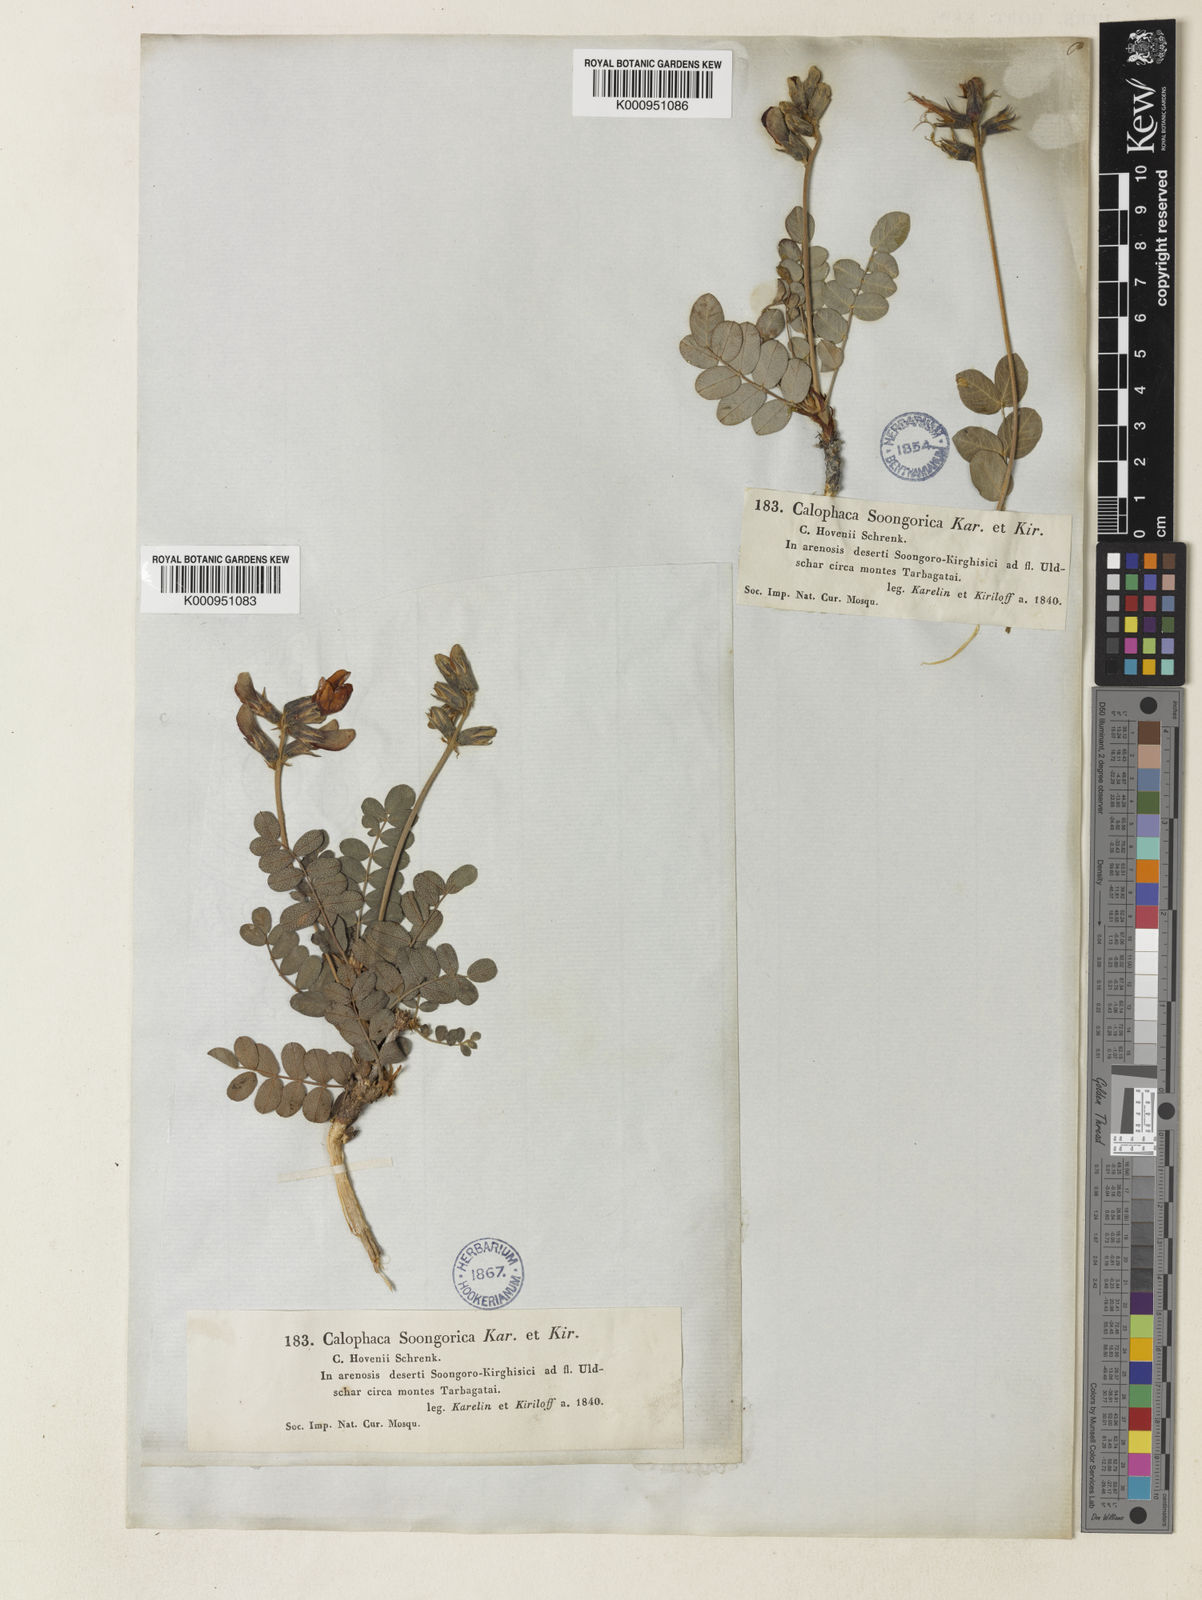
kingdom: Plantae
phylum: Tracheophyta
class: Magnoliopsida
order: Fabales
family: Fabaceae
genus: Calophaca
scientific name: Calophaca soongorica
